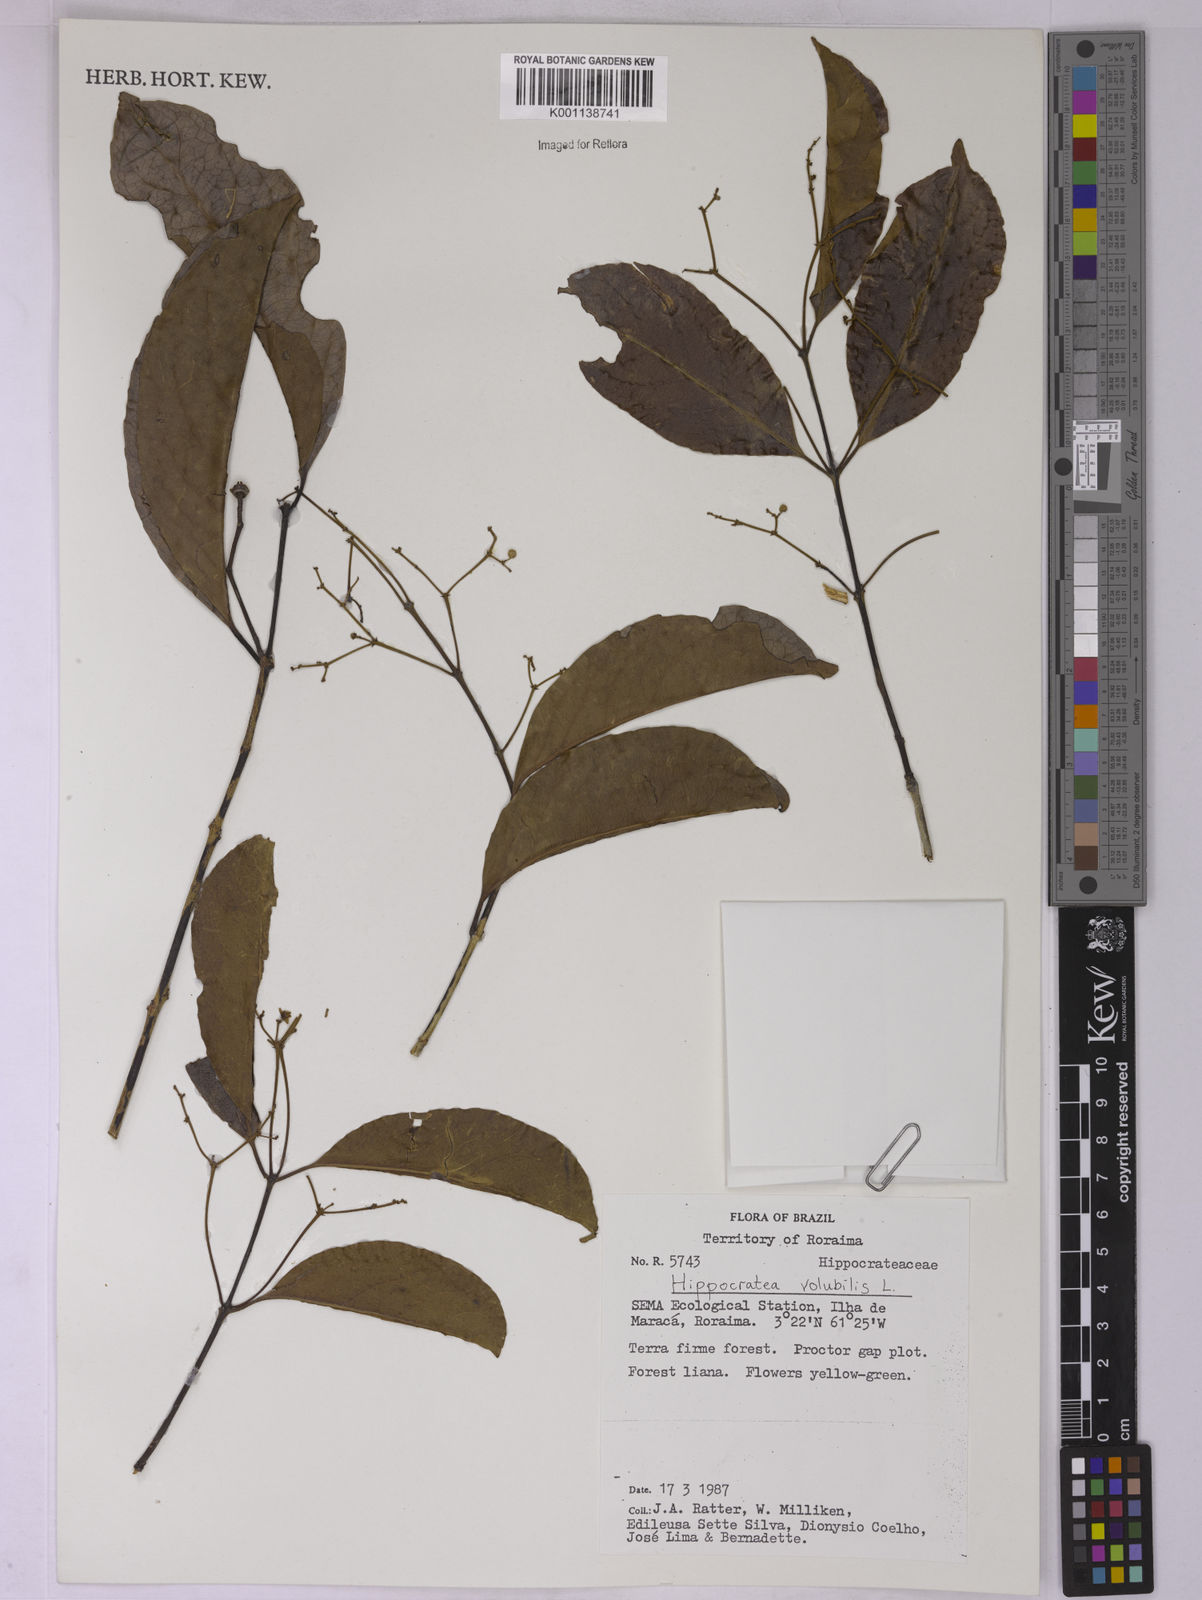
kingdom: Plantae
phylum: Tracheophyta
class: Magnoliopsida
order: Celastrales
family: Celastraceae
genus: Hippocratea
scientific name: Hippocratea volubilis
